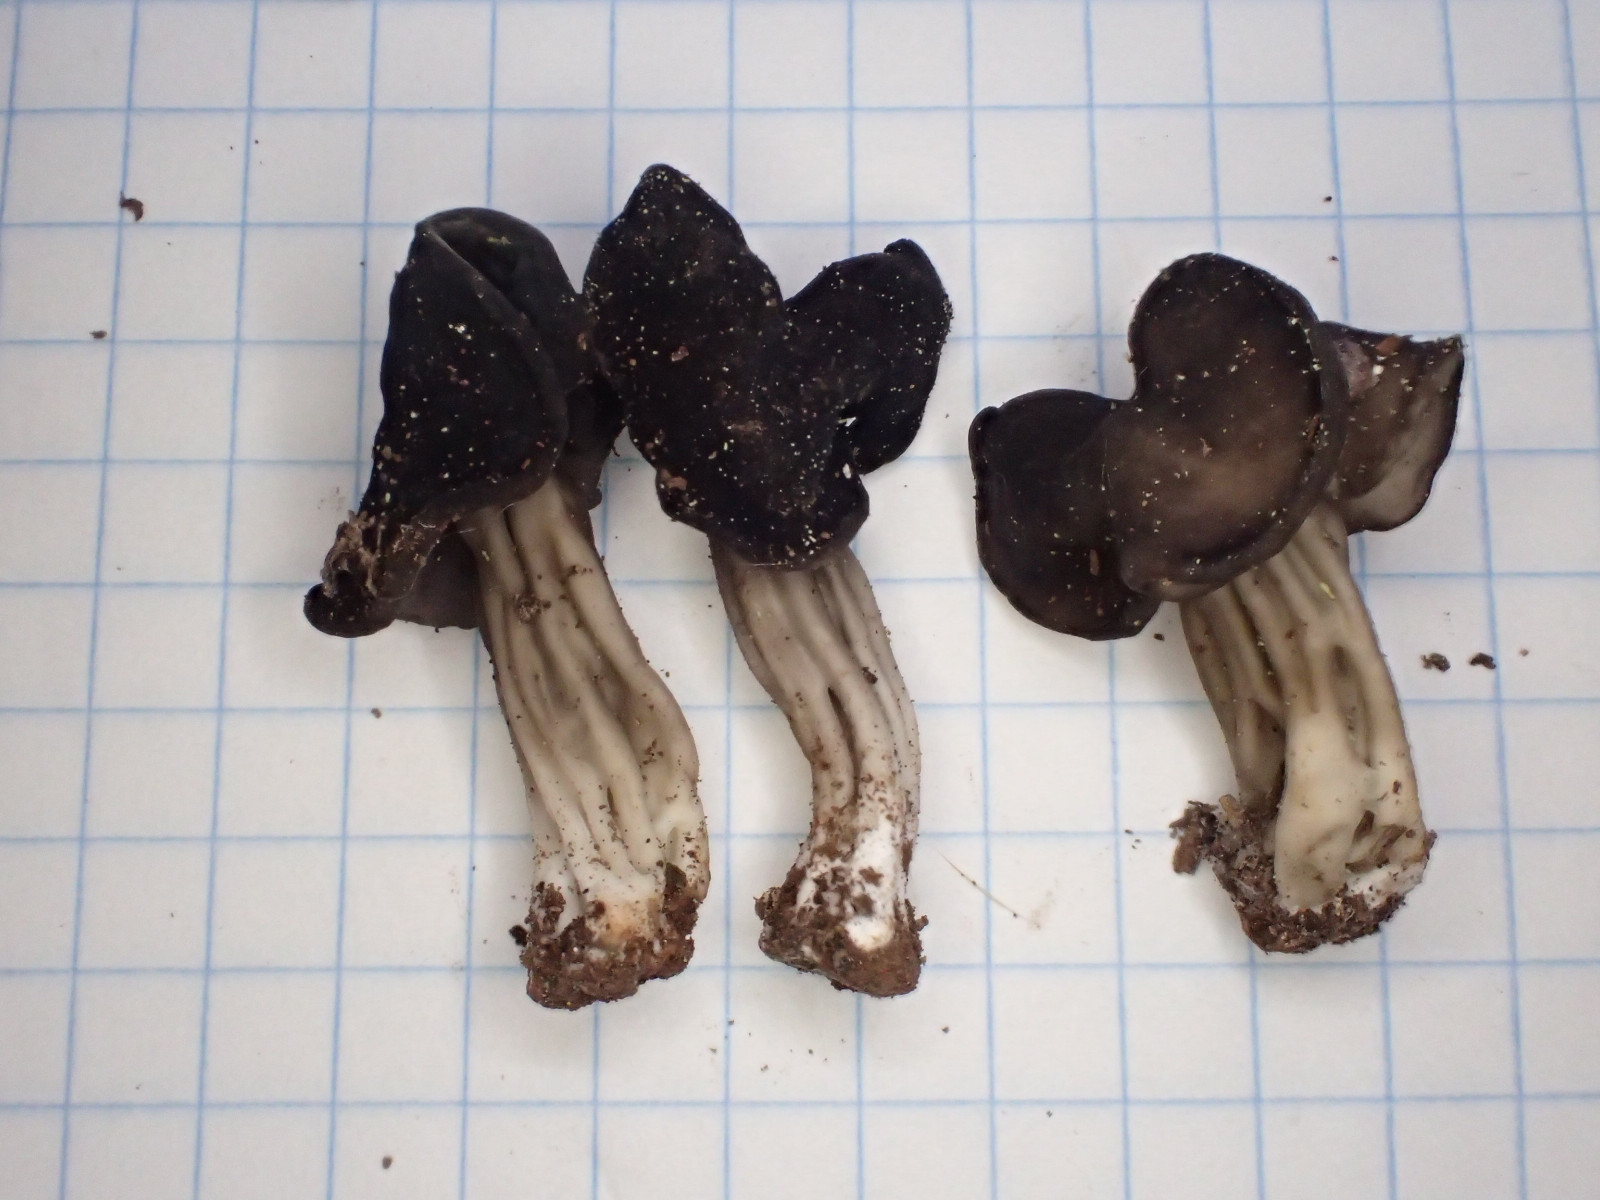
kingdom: Fungi
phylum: Ascomycota
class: Pezizomycetes
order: Pezizales
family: Helvellaceae
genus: Helvella
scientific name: Helvella
